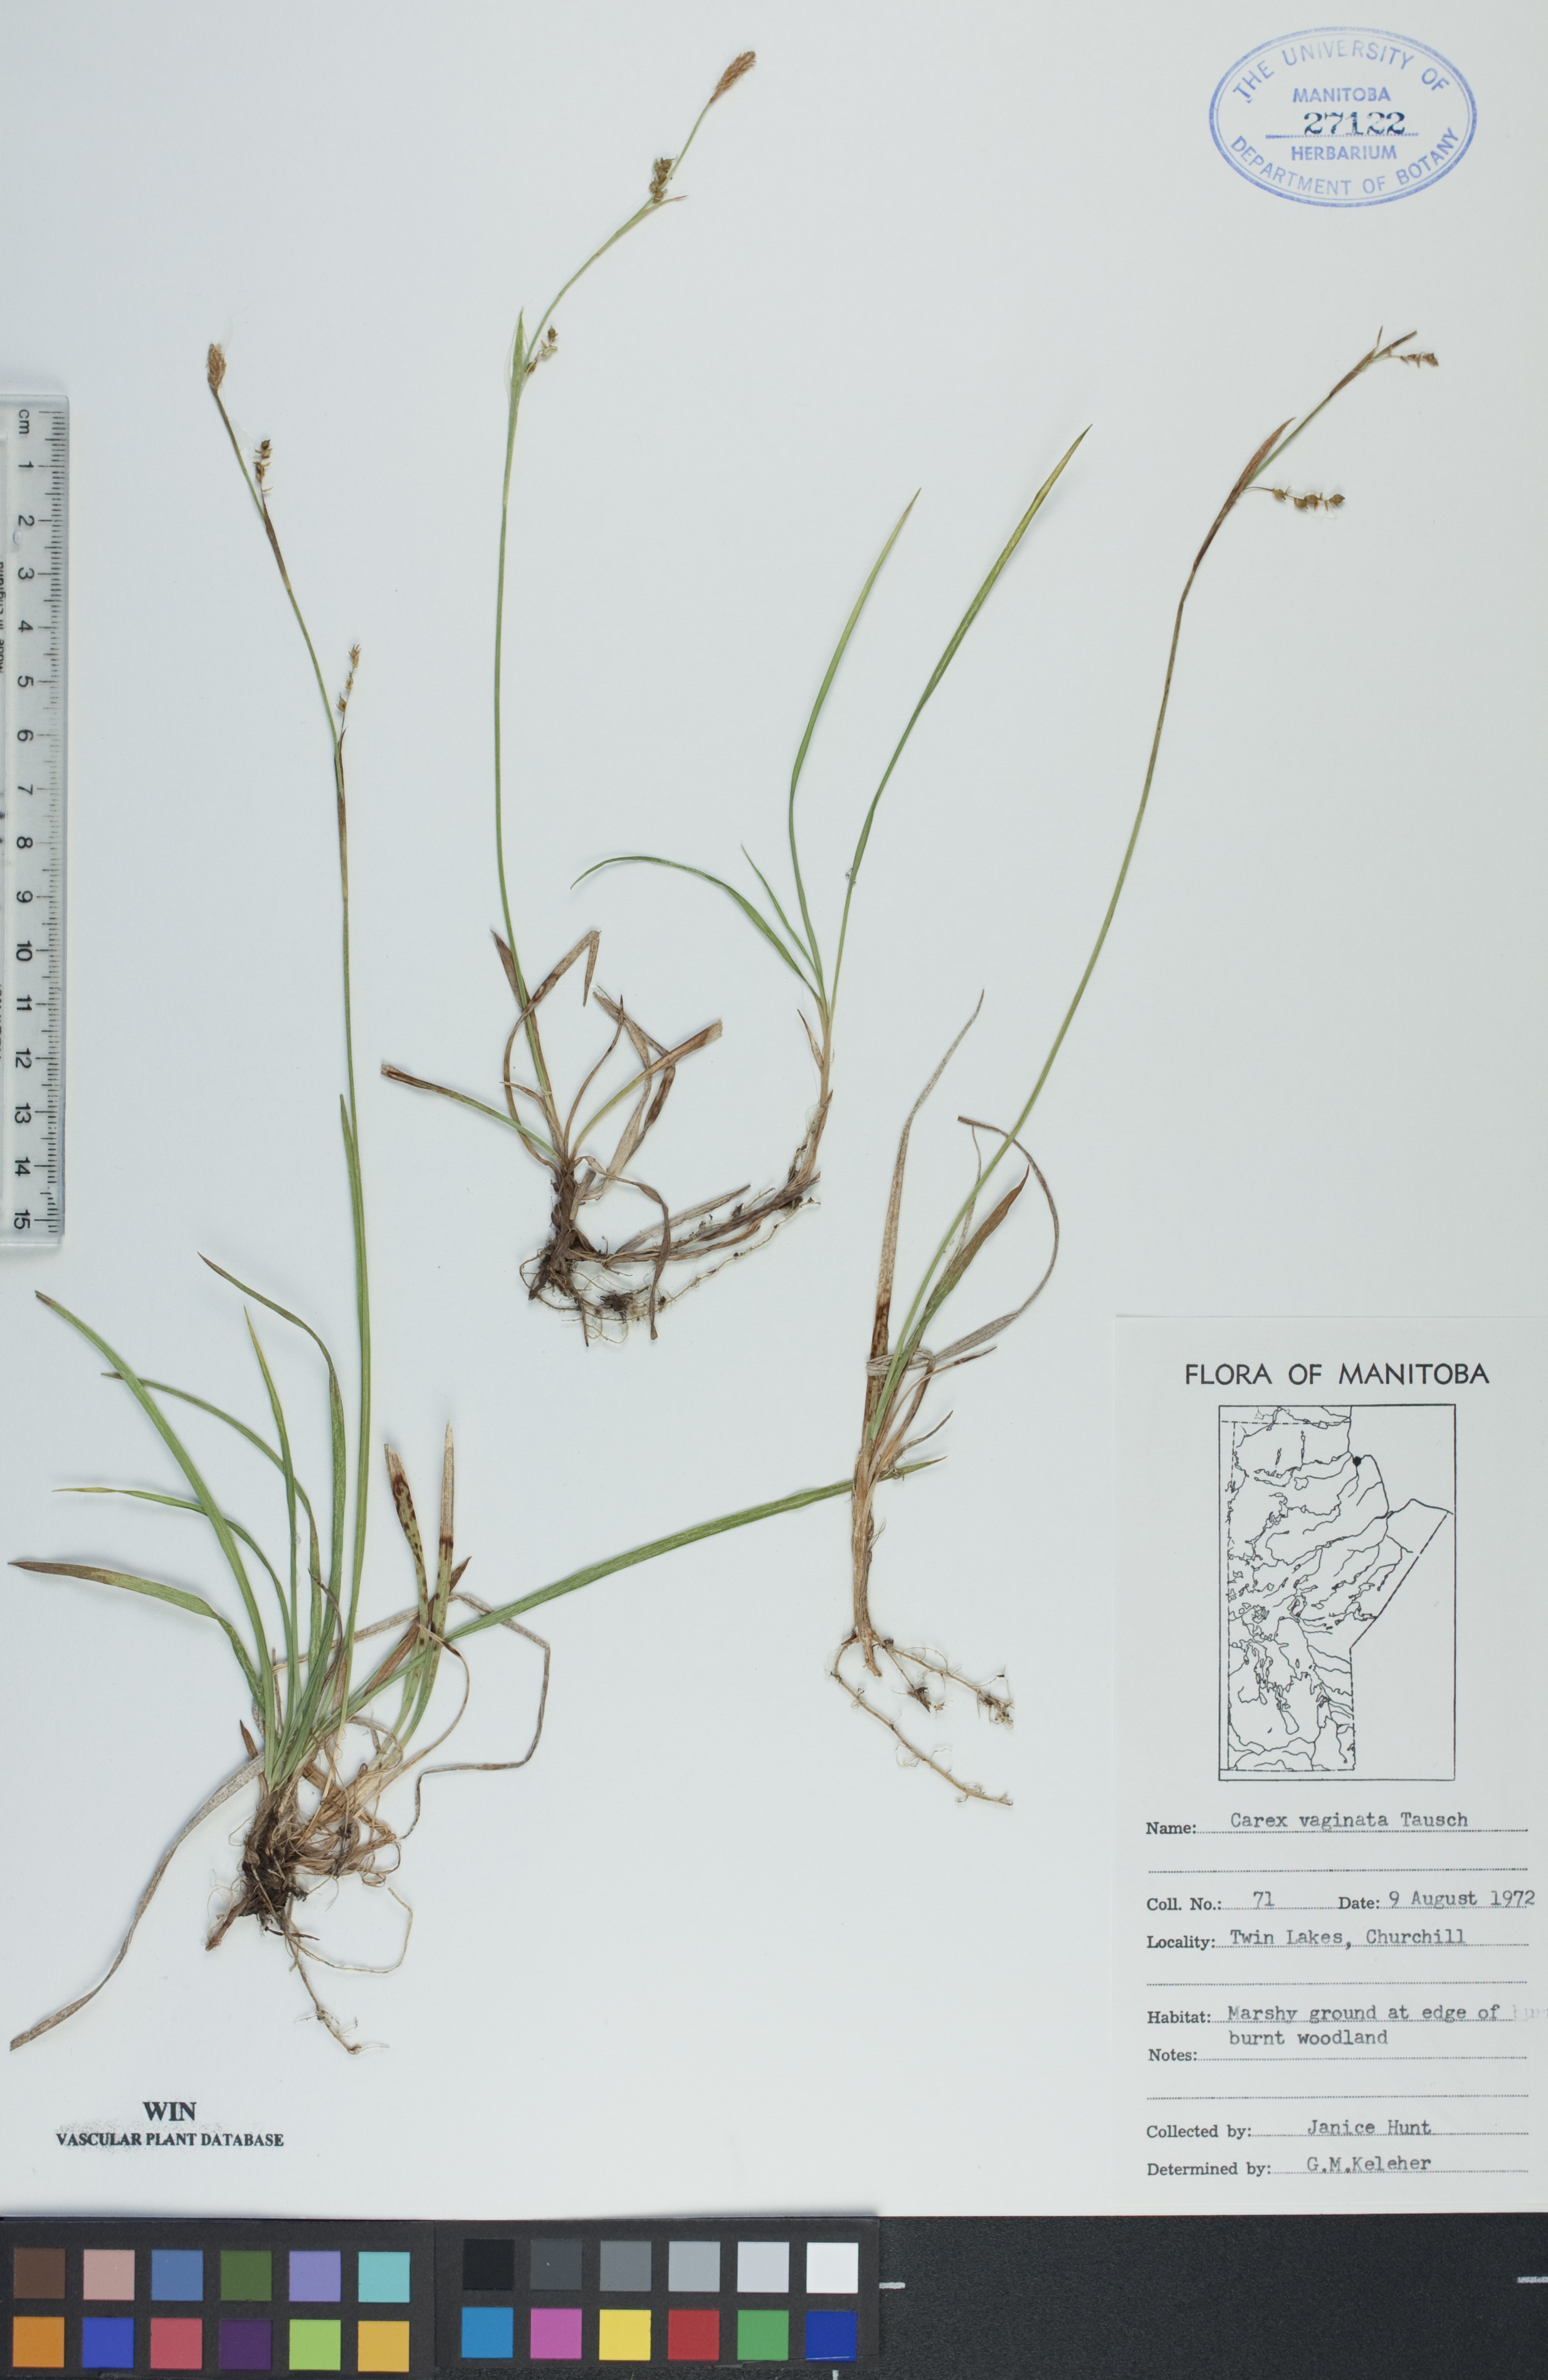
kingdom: Plantae
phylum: Tracheophyta
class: Liliopsida
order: Poales
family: Cyperaceae
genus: Carex
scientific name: Carex vaginata
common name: Sheathed sedge
